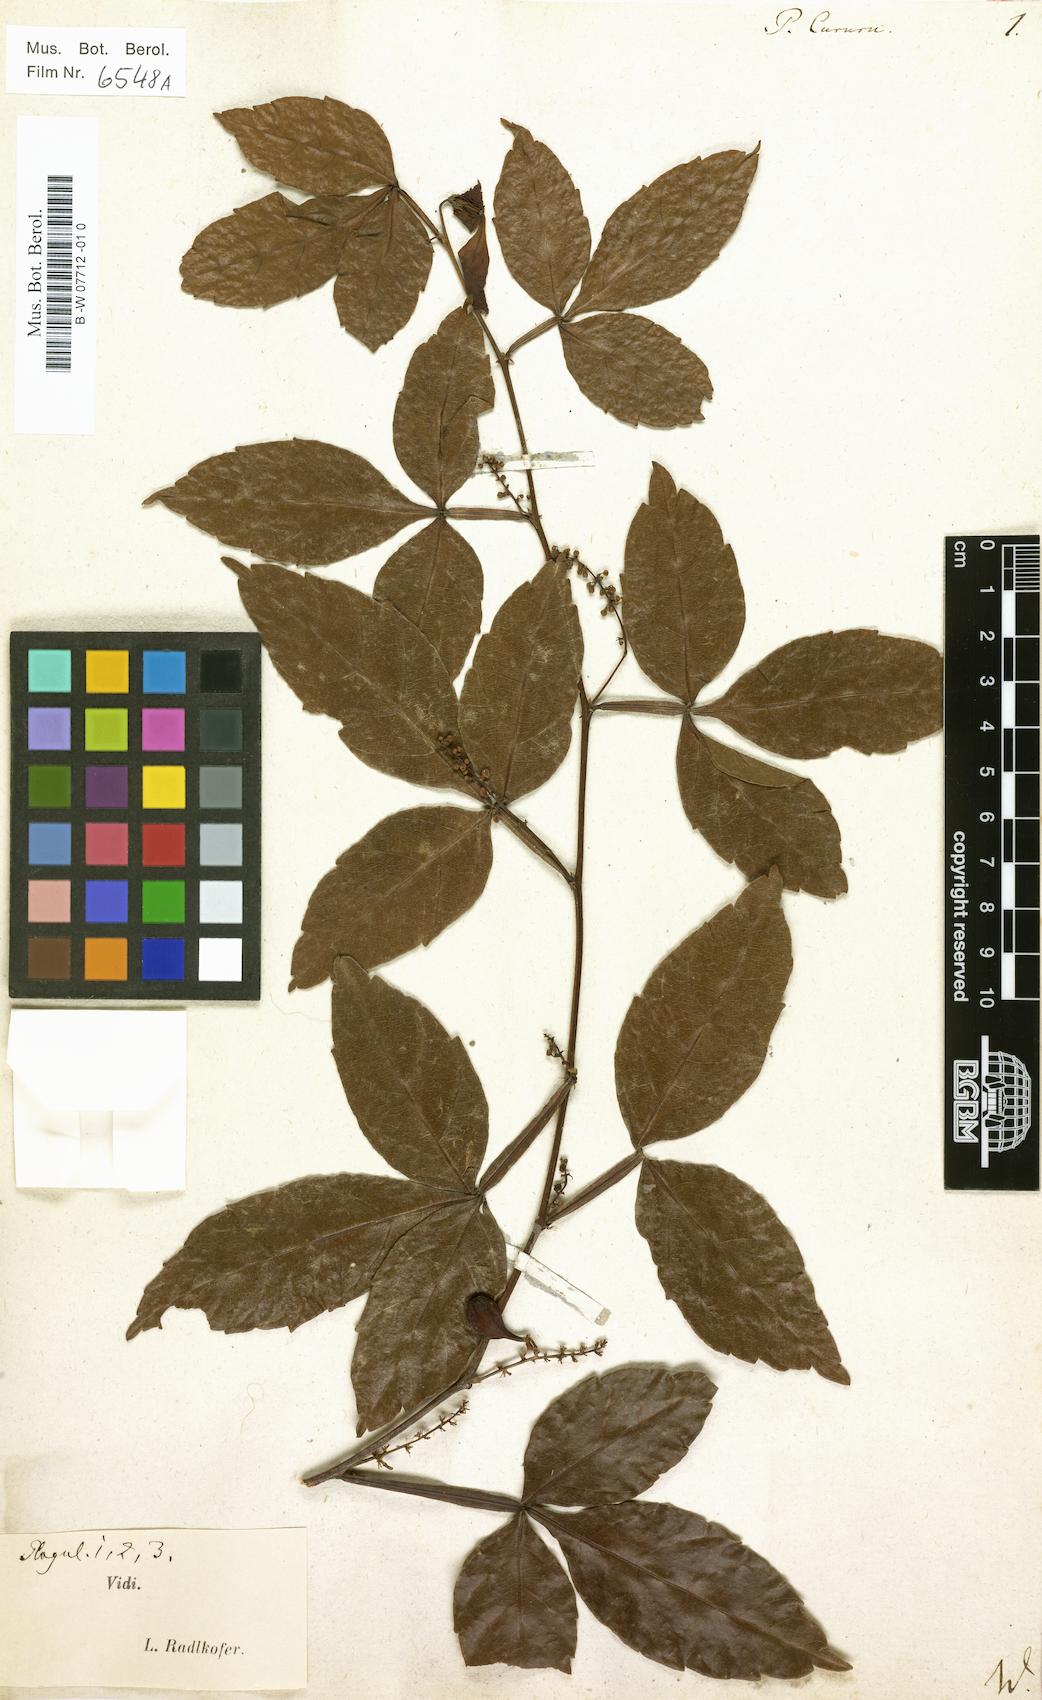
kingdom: Plantae
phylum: Tracheophyta
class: Magnoliopsida
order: Sapindales
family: Sapindaceae
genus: Paullinia
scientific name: Paullinia cururu
